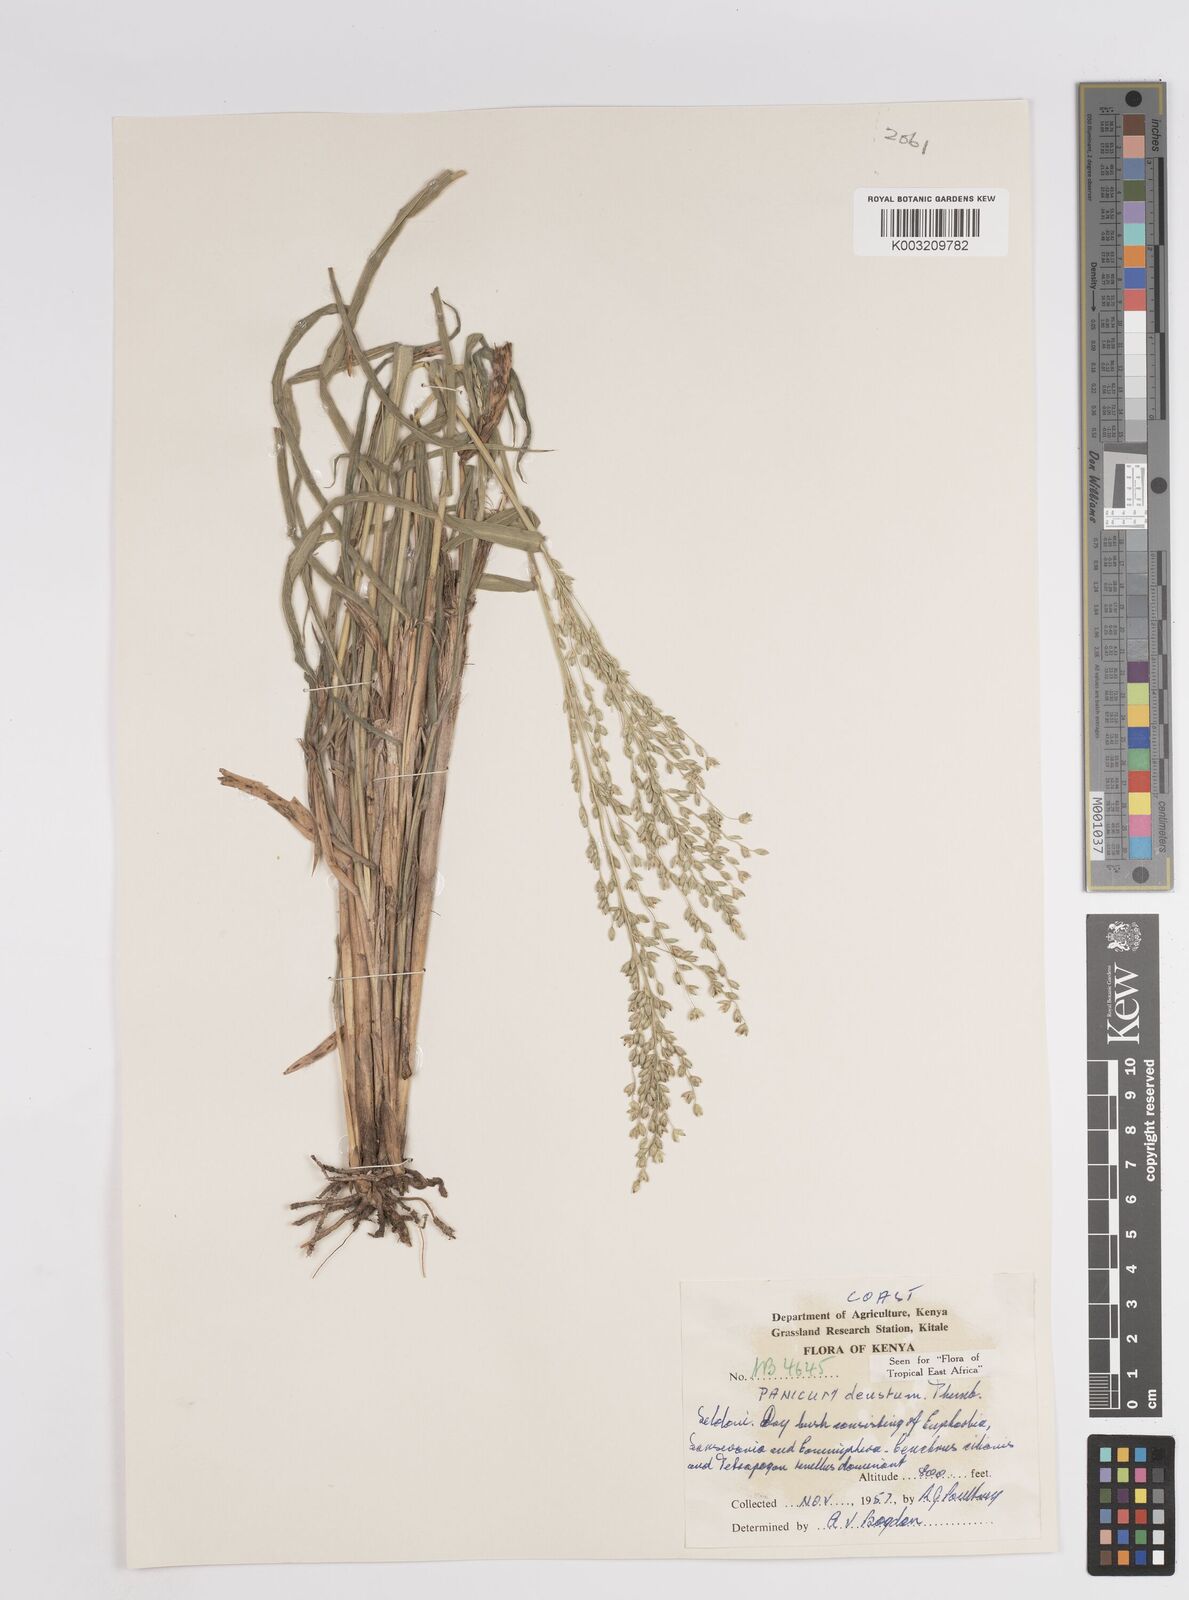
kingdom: Plantae
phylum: Tracheophyta
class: Liliopsida
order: Poales
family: Poaceae
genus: Panicum
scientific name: Panicum deustum
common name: Reed panicum
